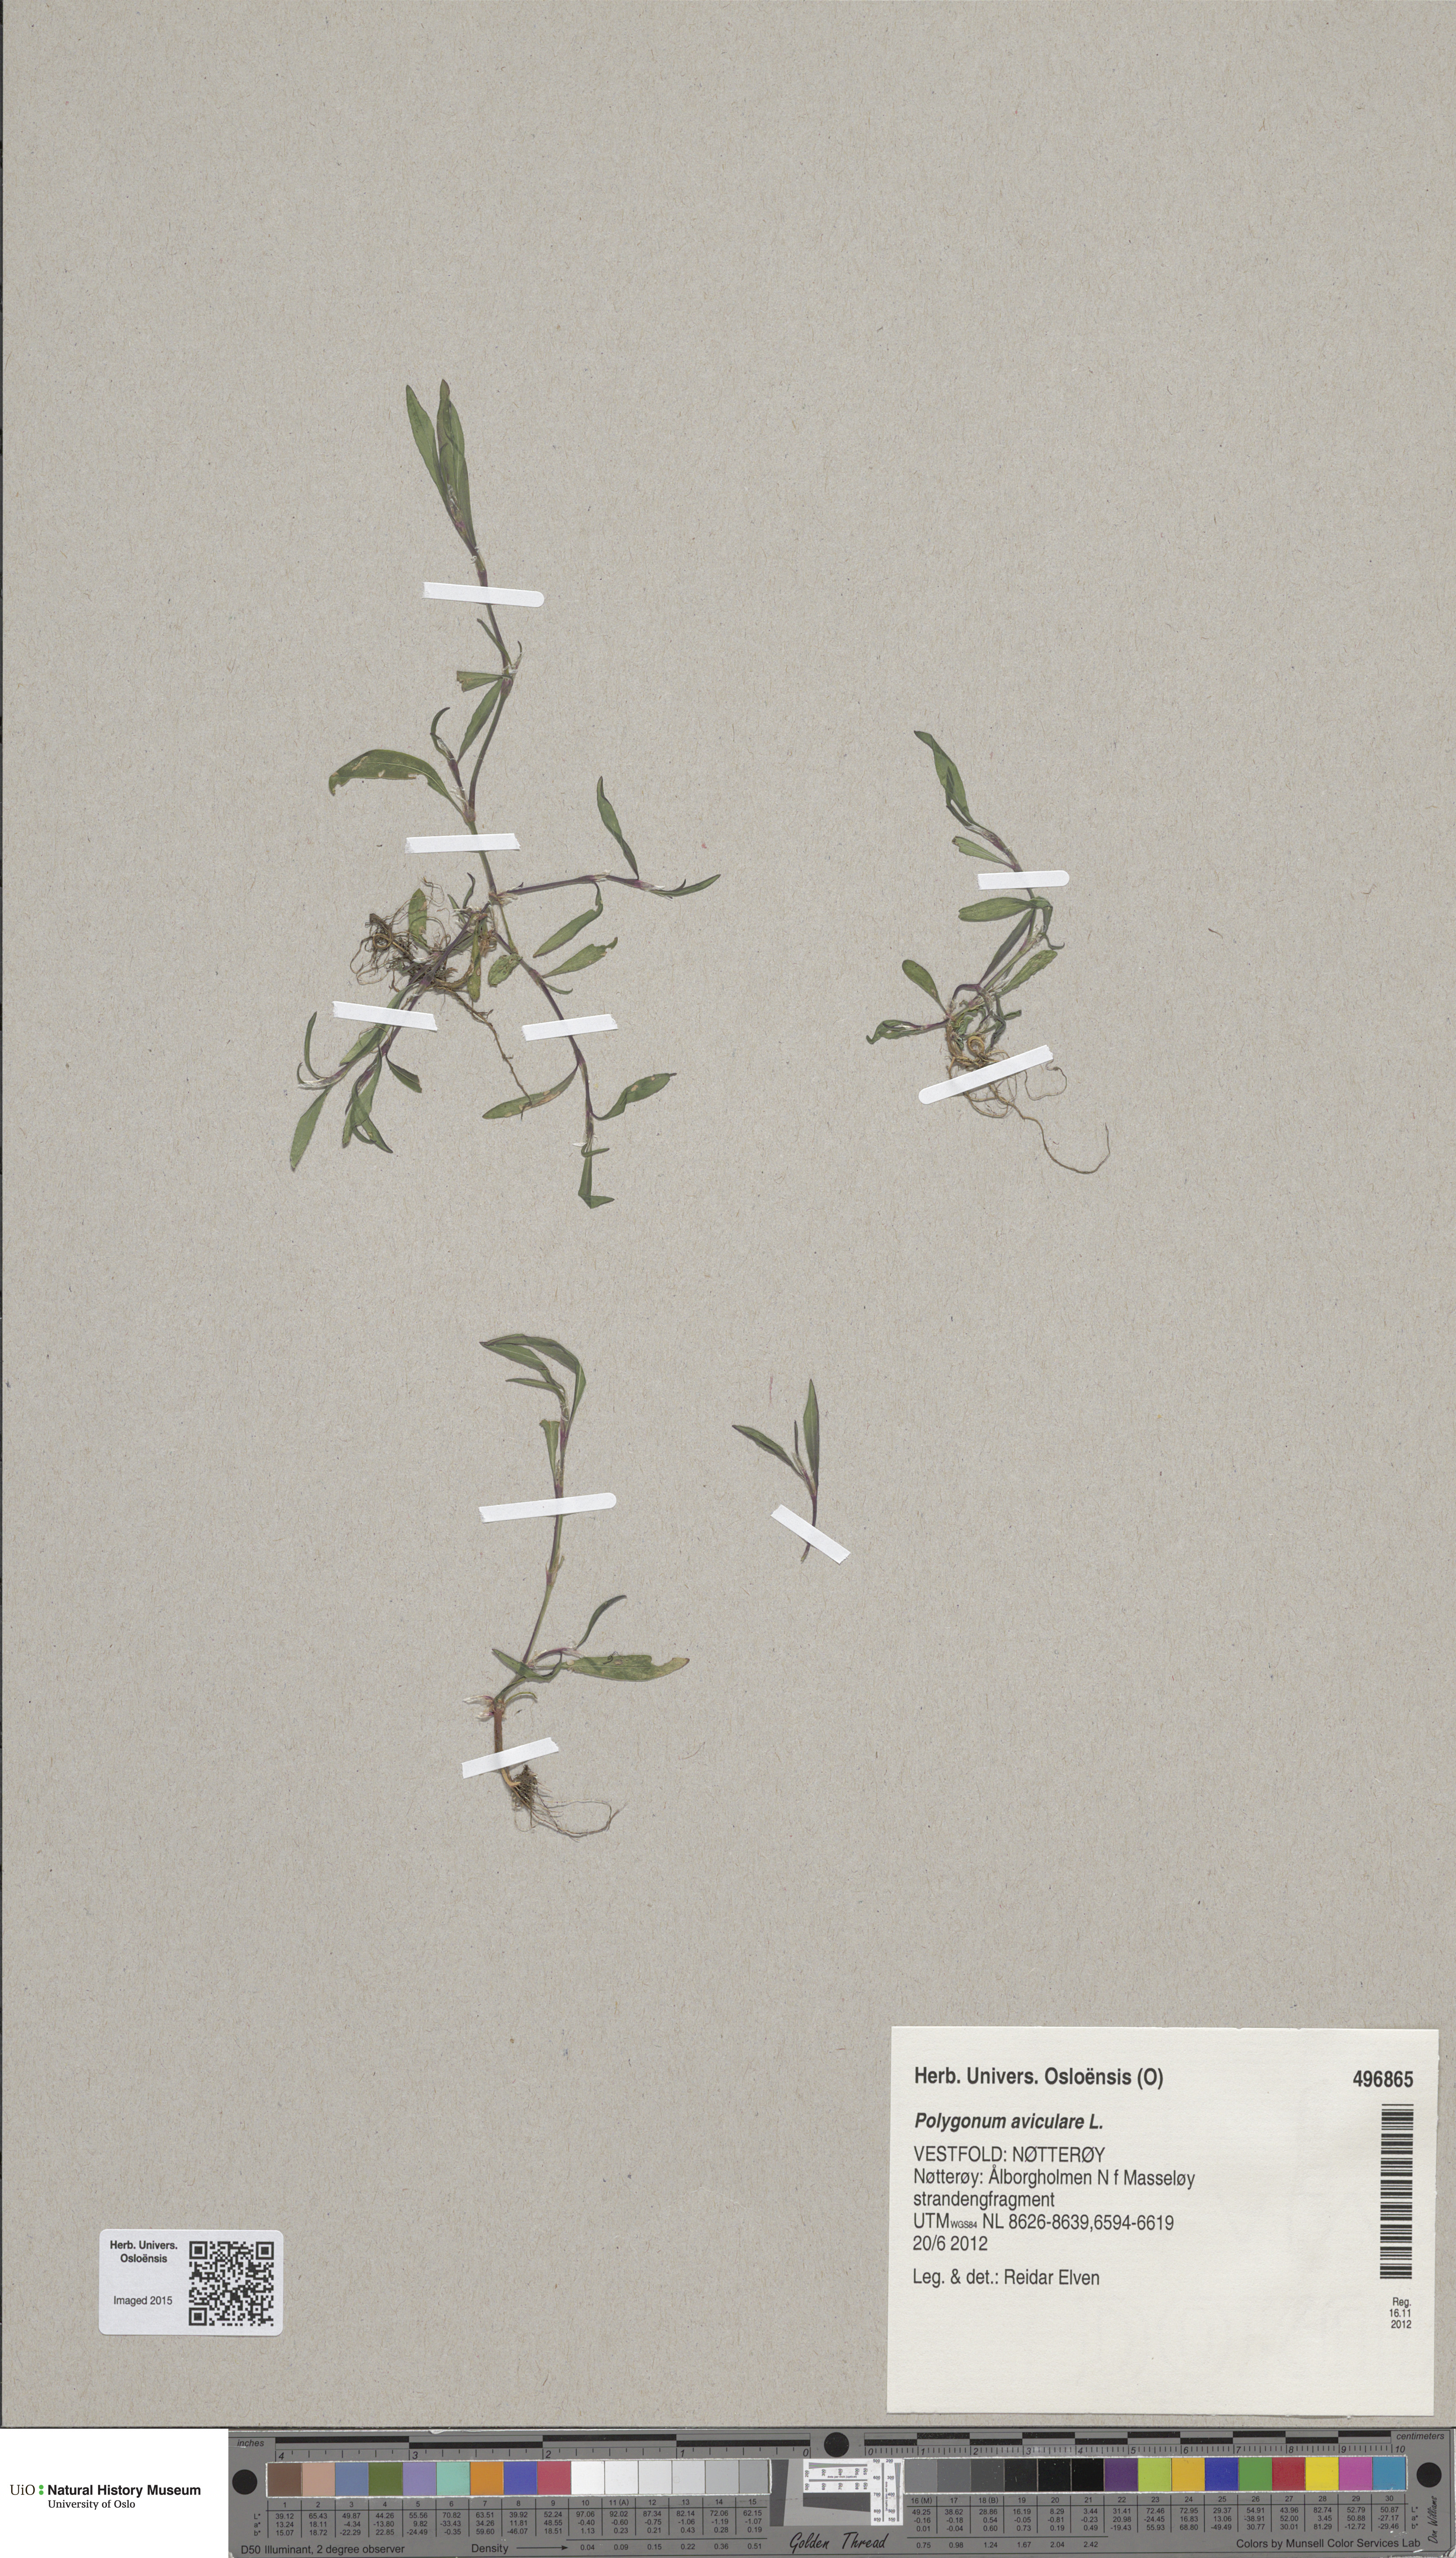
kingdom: Plantae
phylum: Tracheophyta
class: Magnoliopsida
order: Caryophyllales
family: Polygonaceae
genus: Polygonum
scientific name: Polygonum aviculare
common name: Prostrate knotweed
